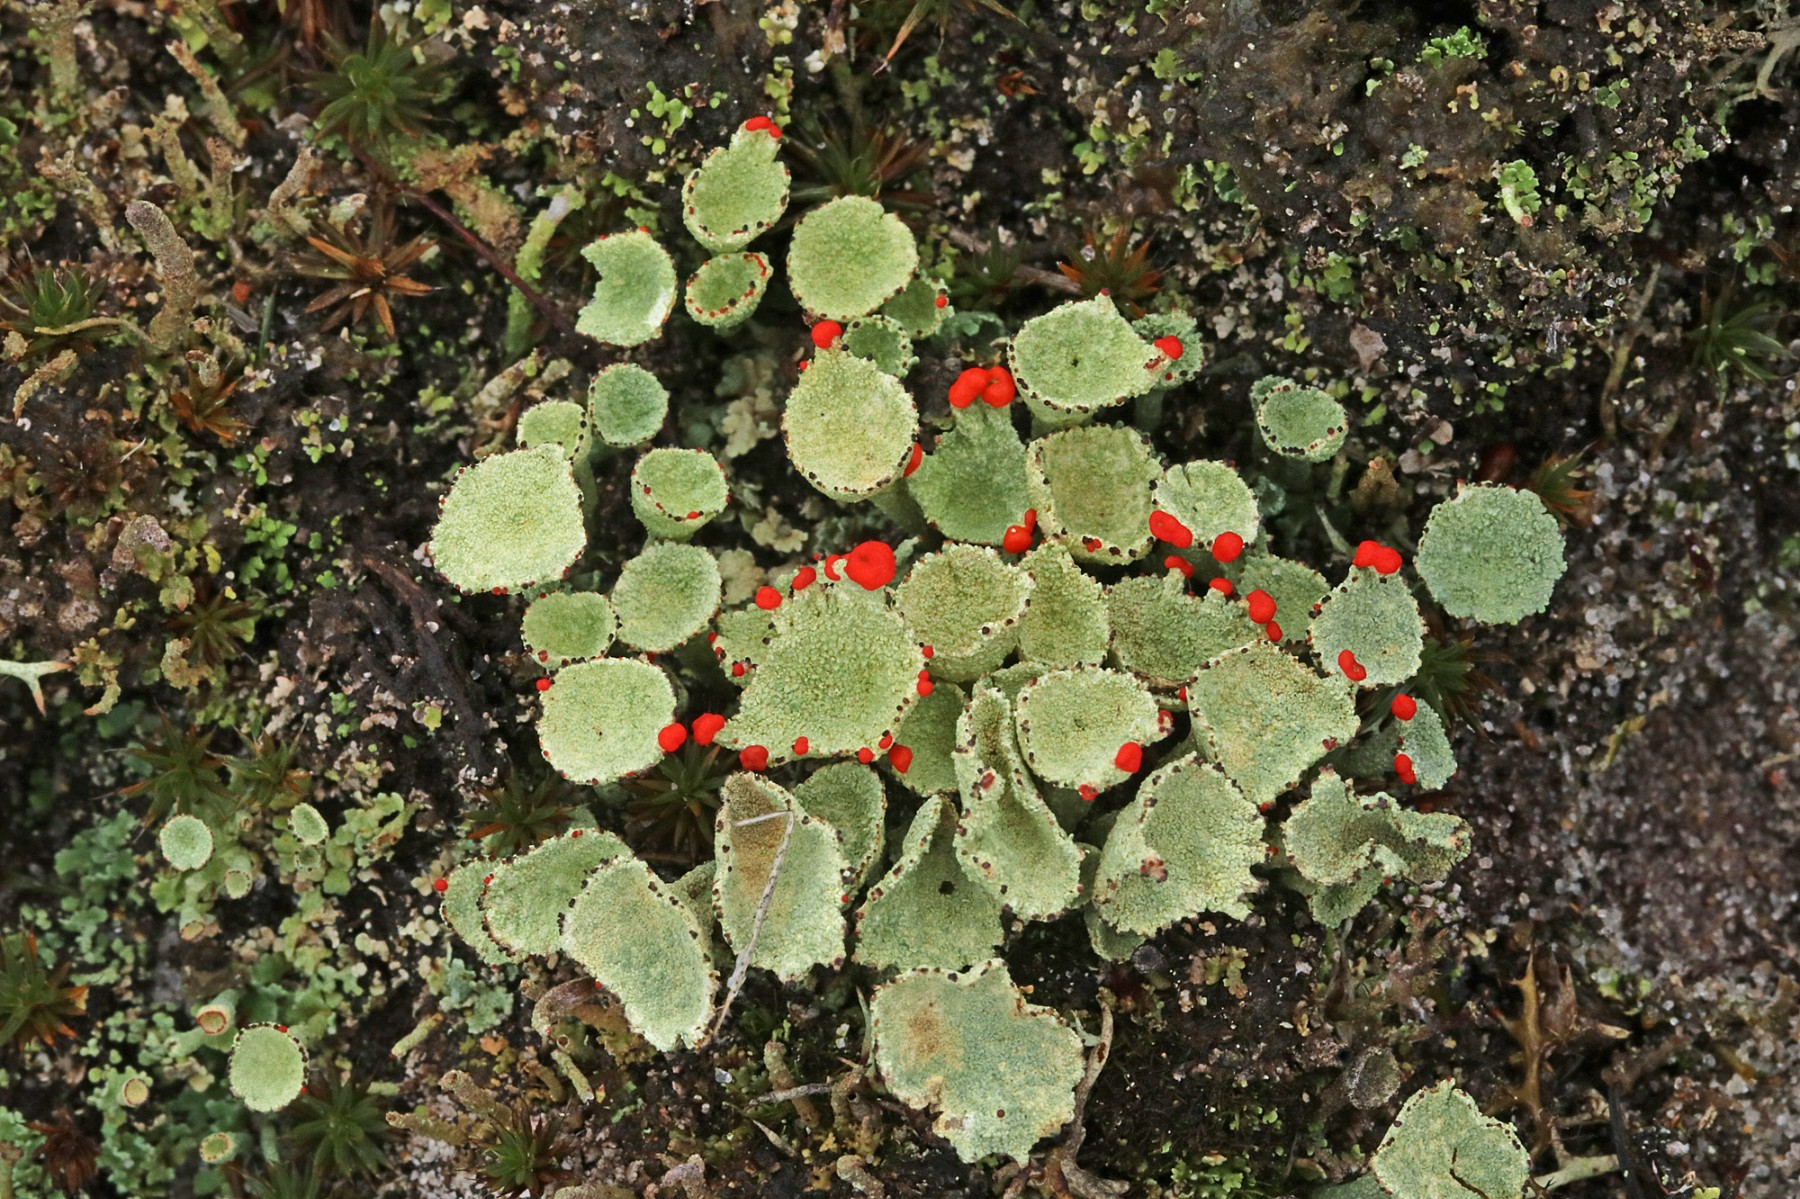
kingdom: Fungi
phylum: Ascomycota
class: Lecanoromycetes
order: Lecanorales
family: Cladoniaceae
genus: Cladonia
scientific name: Cladonia diversa
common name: rød bægerlav
